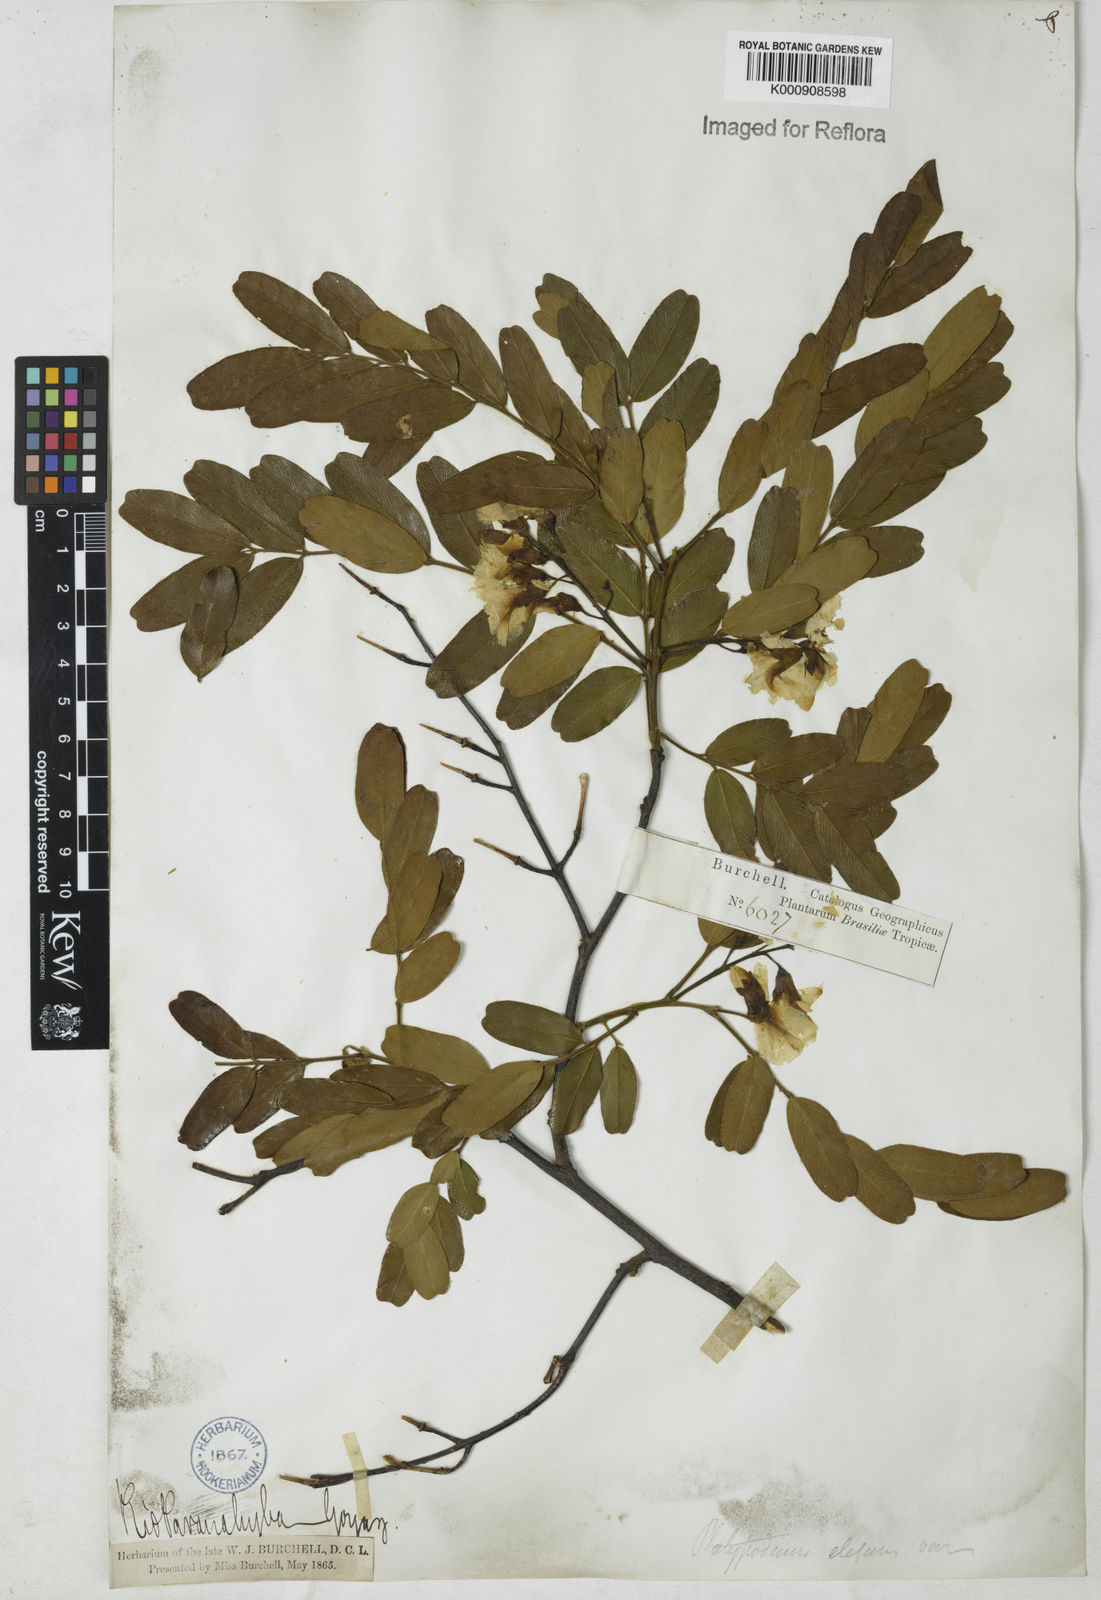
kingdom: Plantae
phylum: Tracheophyta
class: Magnoliopsida
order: Fabales
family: Fabaceae
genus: Platypodium
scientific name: Platypodium elegans
